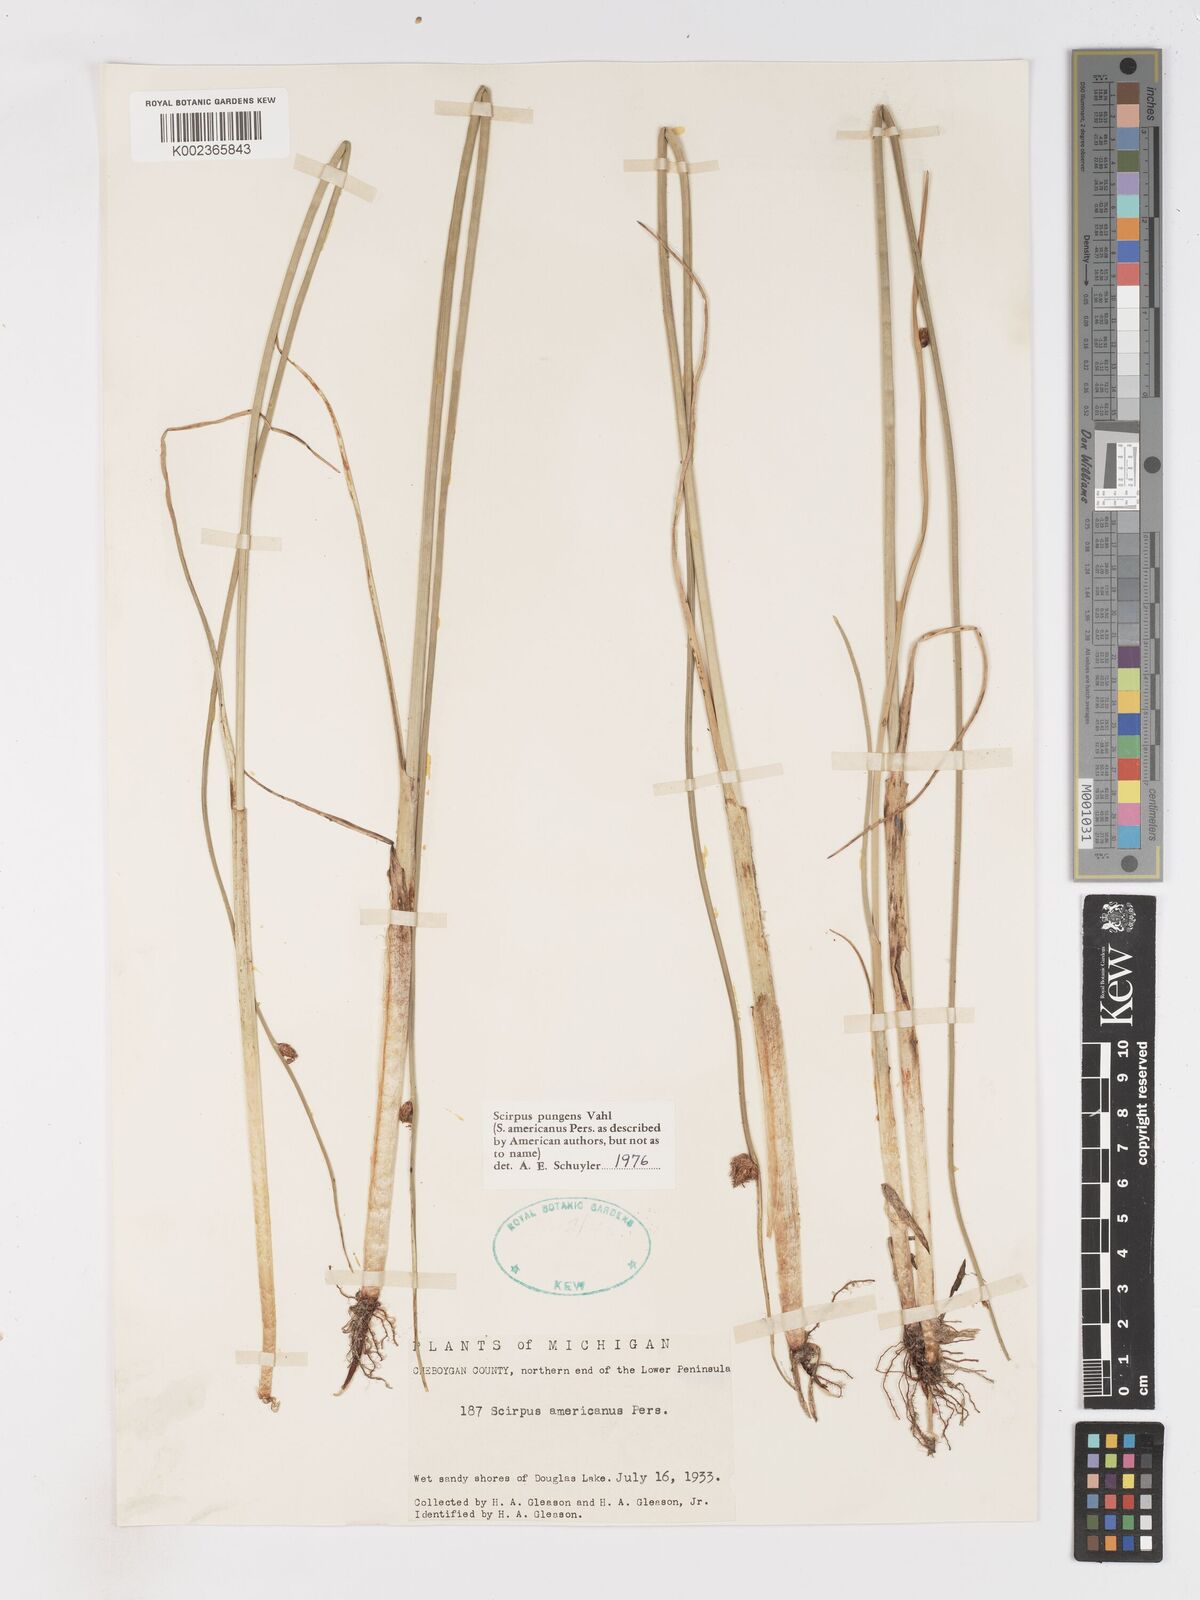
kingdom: Plantae
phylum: Tracheophyta
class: Liliopsida
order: Poales
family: Cyperaceae
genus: Schoenoplectus
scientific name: Schoenoplectus pungens
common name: Sharp club-rush
